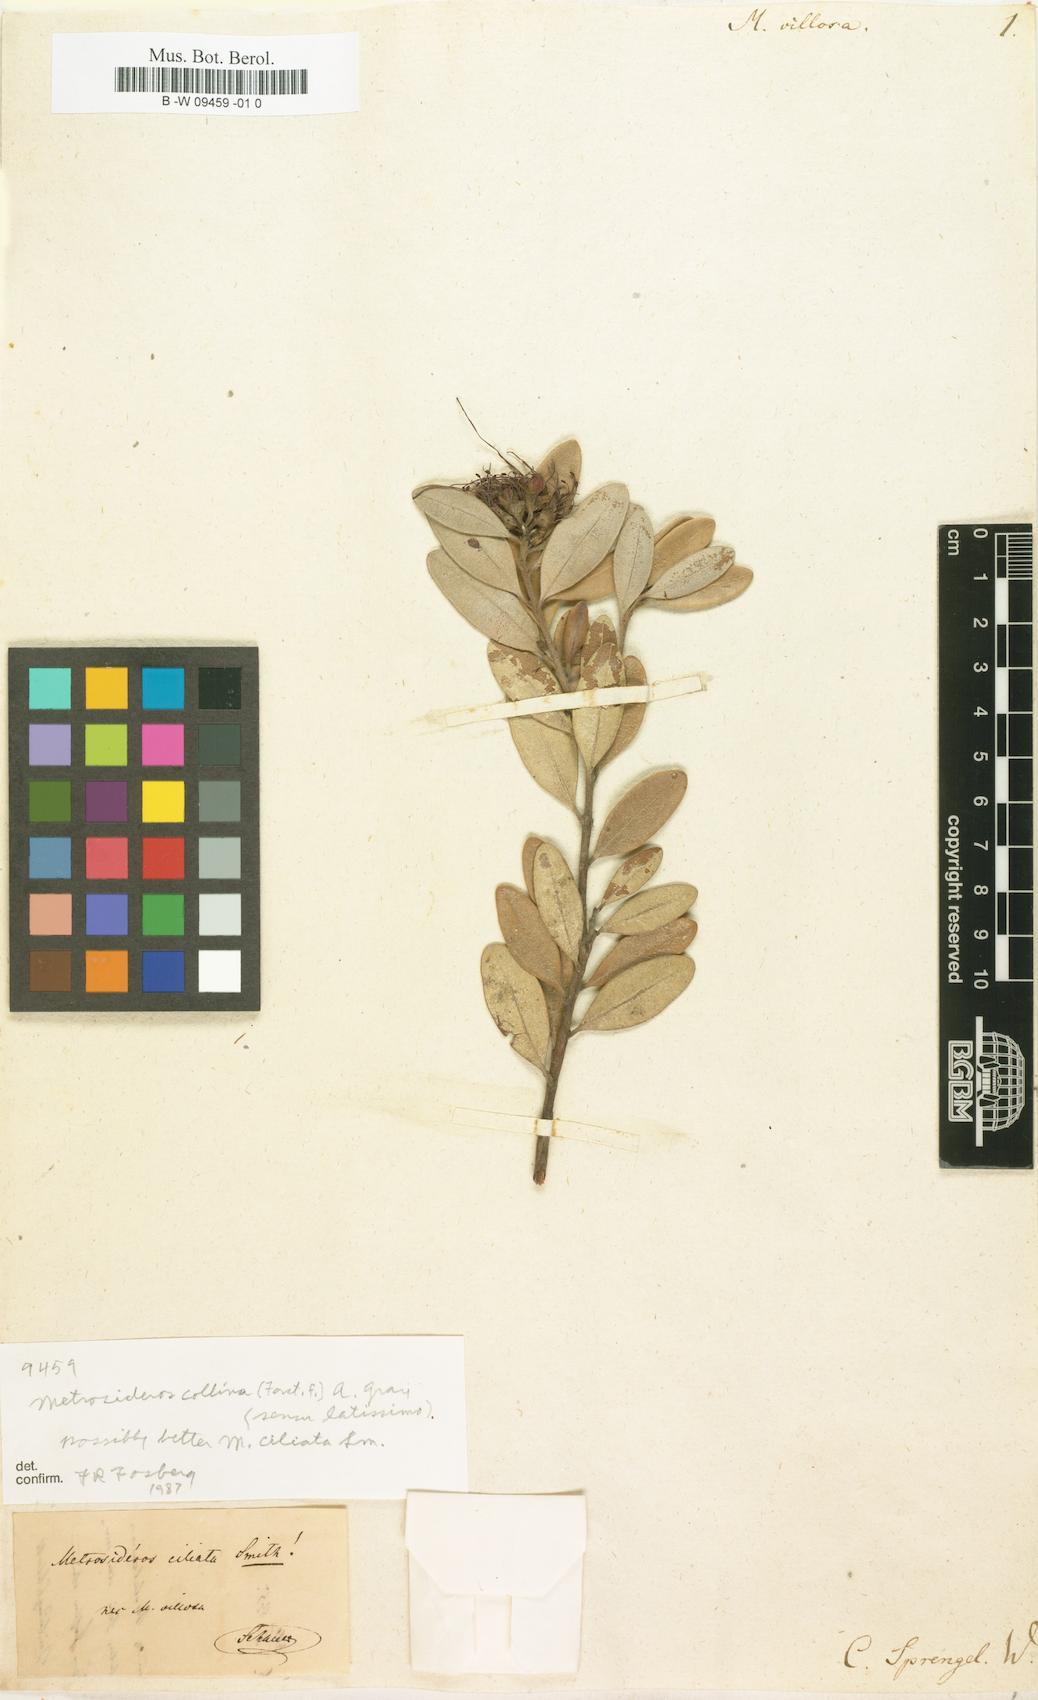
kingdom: Plantae
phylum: Tracheophyta
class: Magnoliopsida
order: Myrtales
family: Myrtaceae
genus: Metrosideros
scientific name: Metrosideros collina
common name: Vunga
